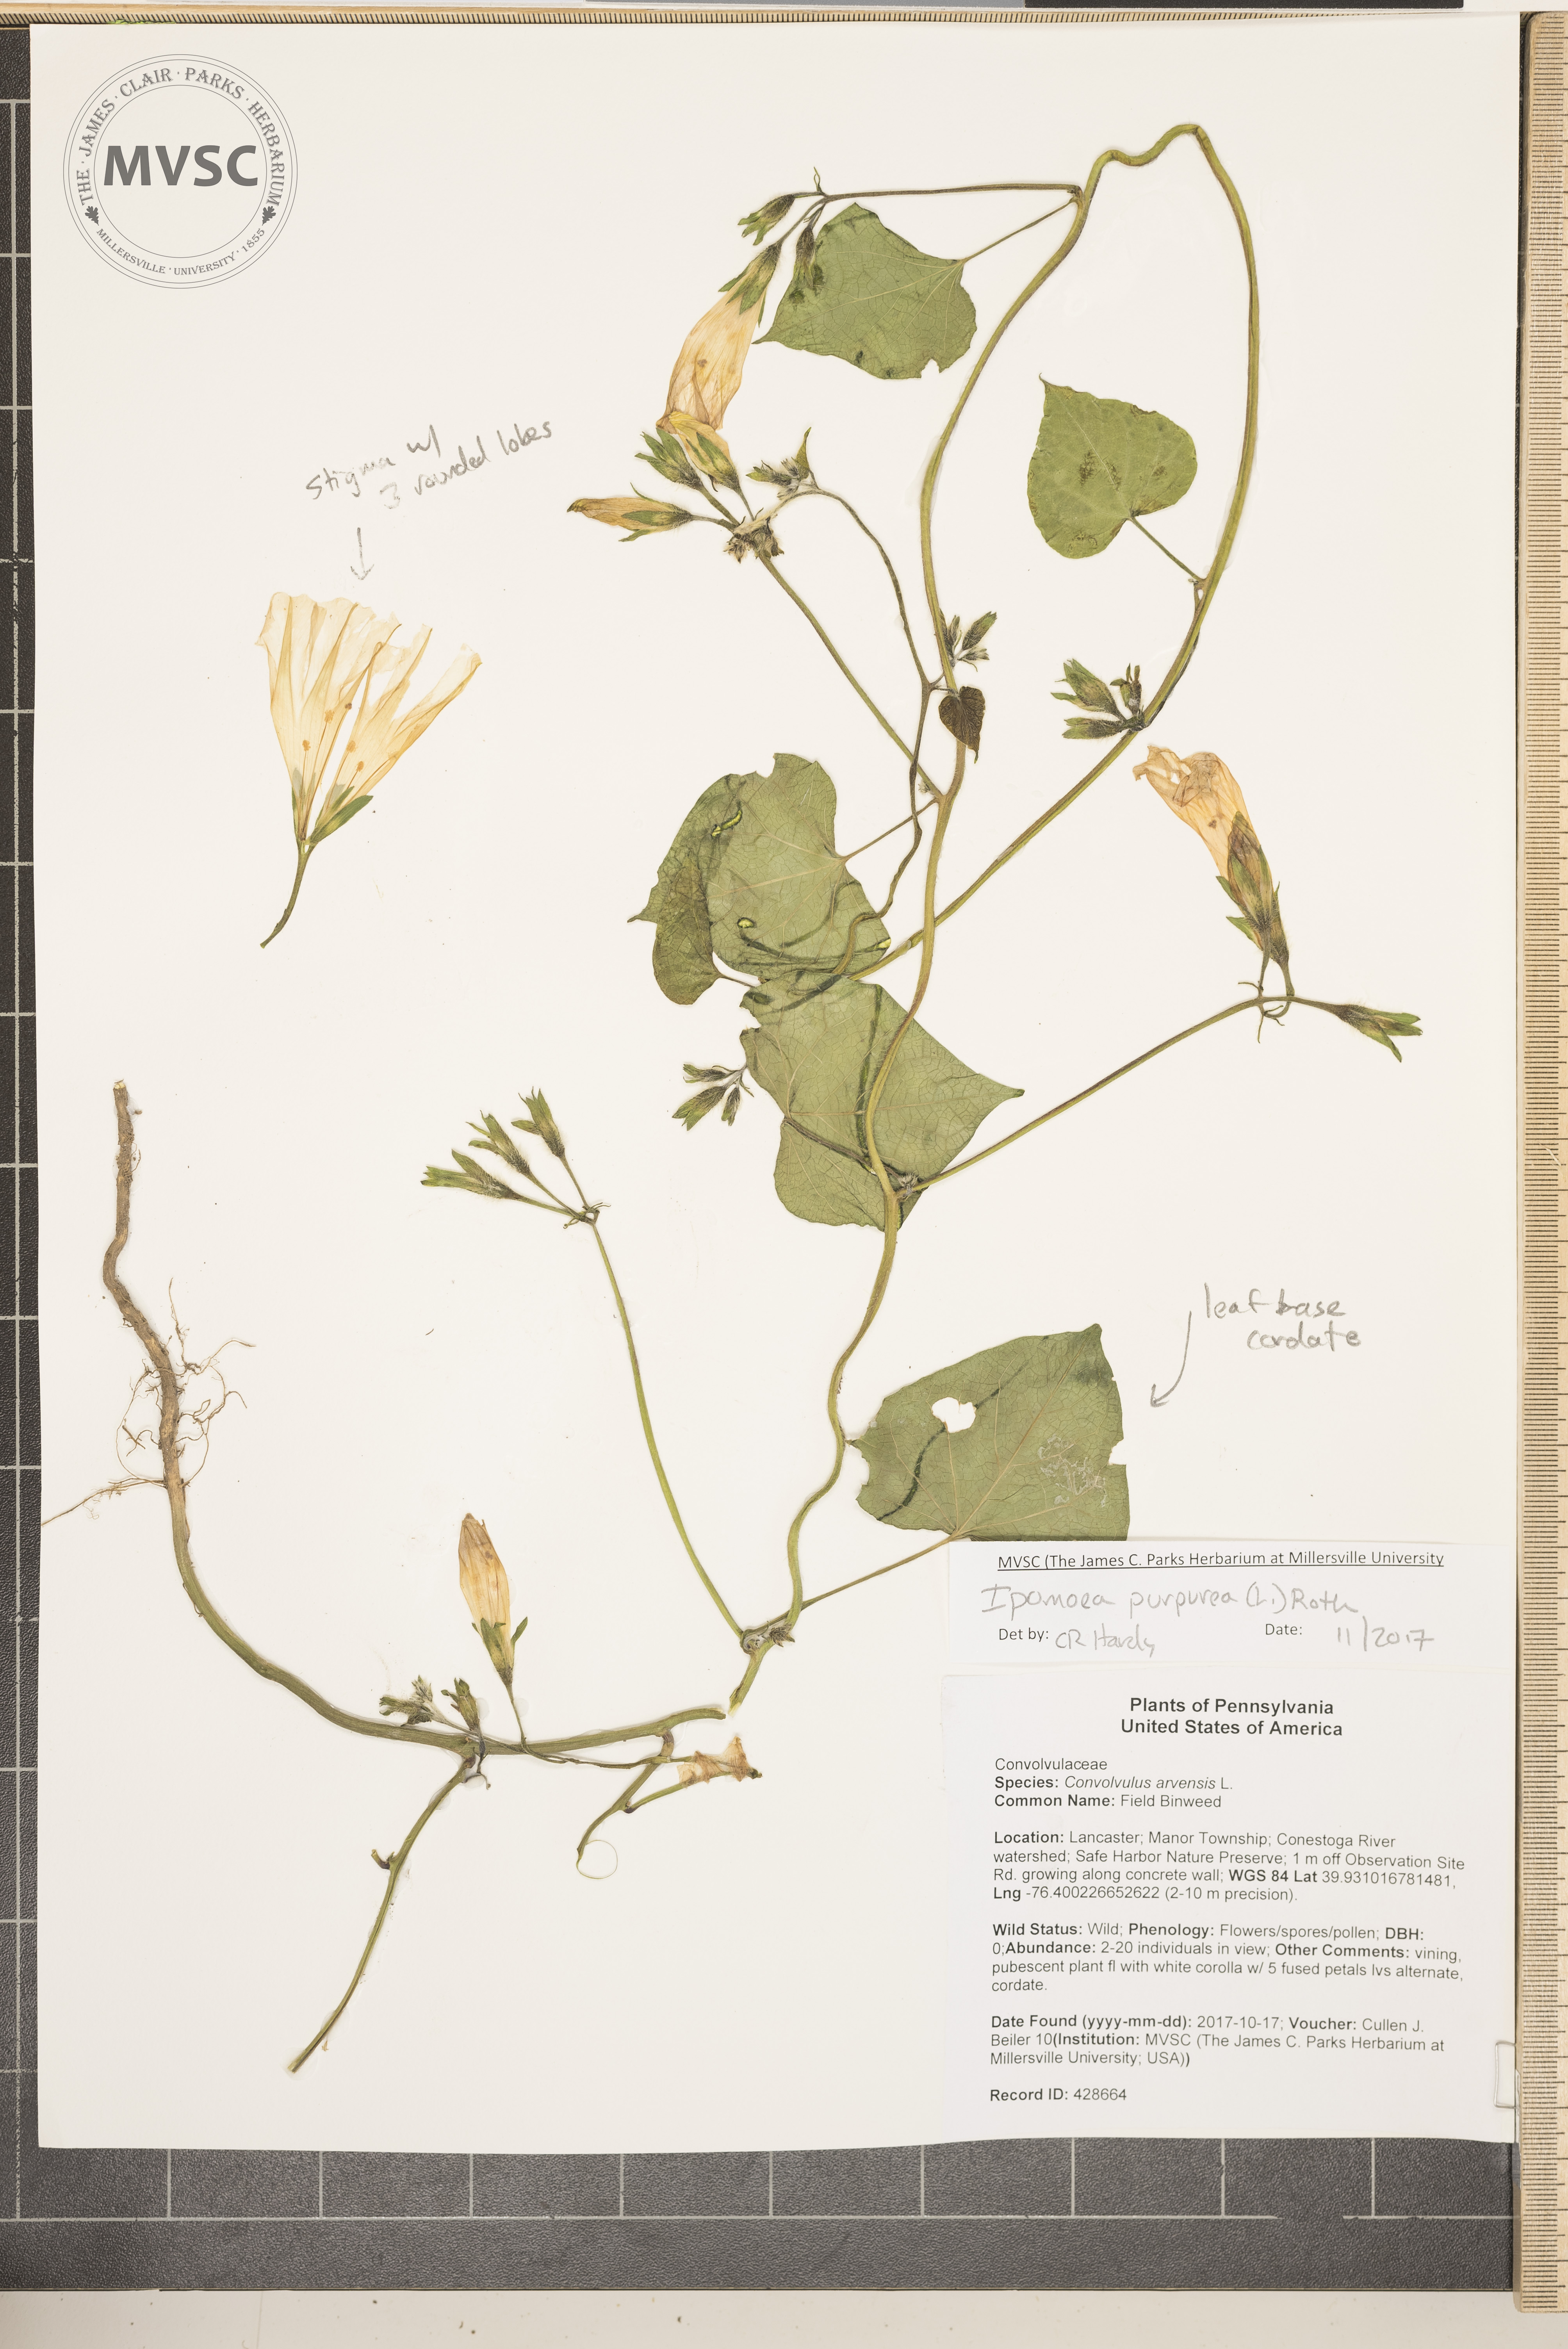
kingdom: Plantae
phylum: Tracheophyta
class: Magnoliopsida
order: Solanales
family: Convolvulaceae
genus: Ipomoea
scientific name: Ipomoea purpurea
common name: Common Morning Glory
